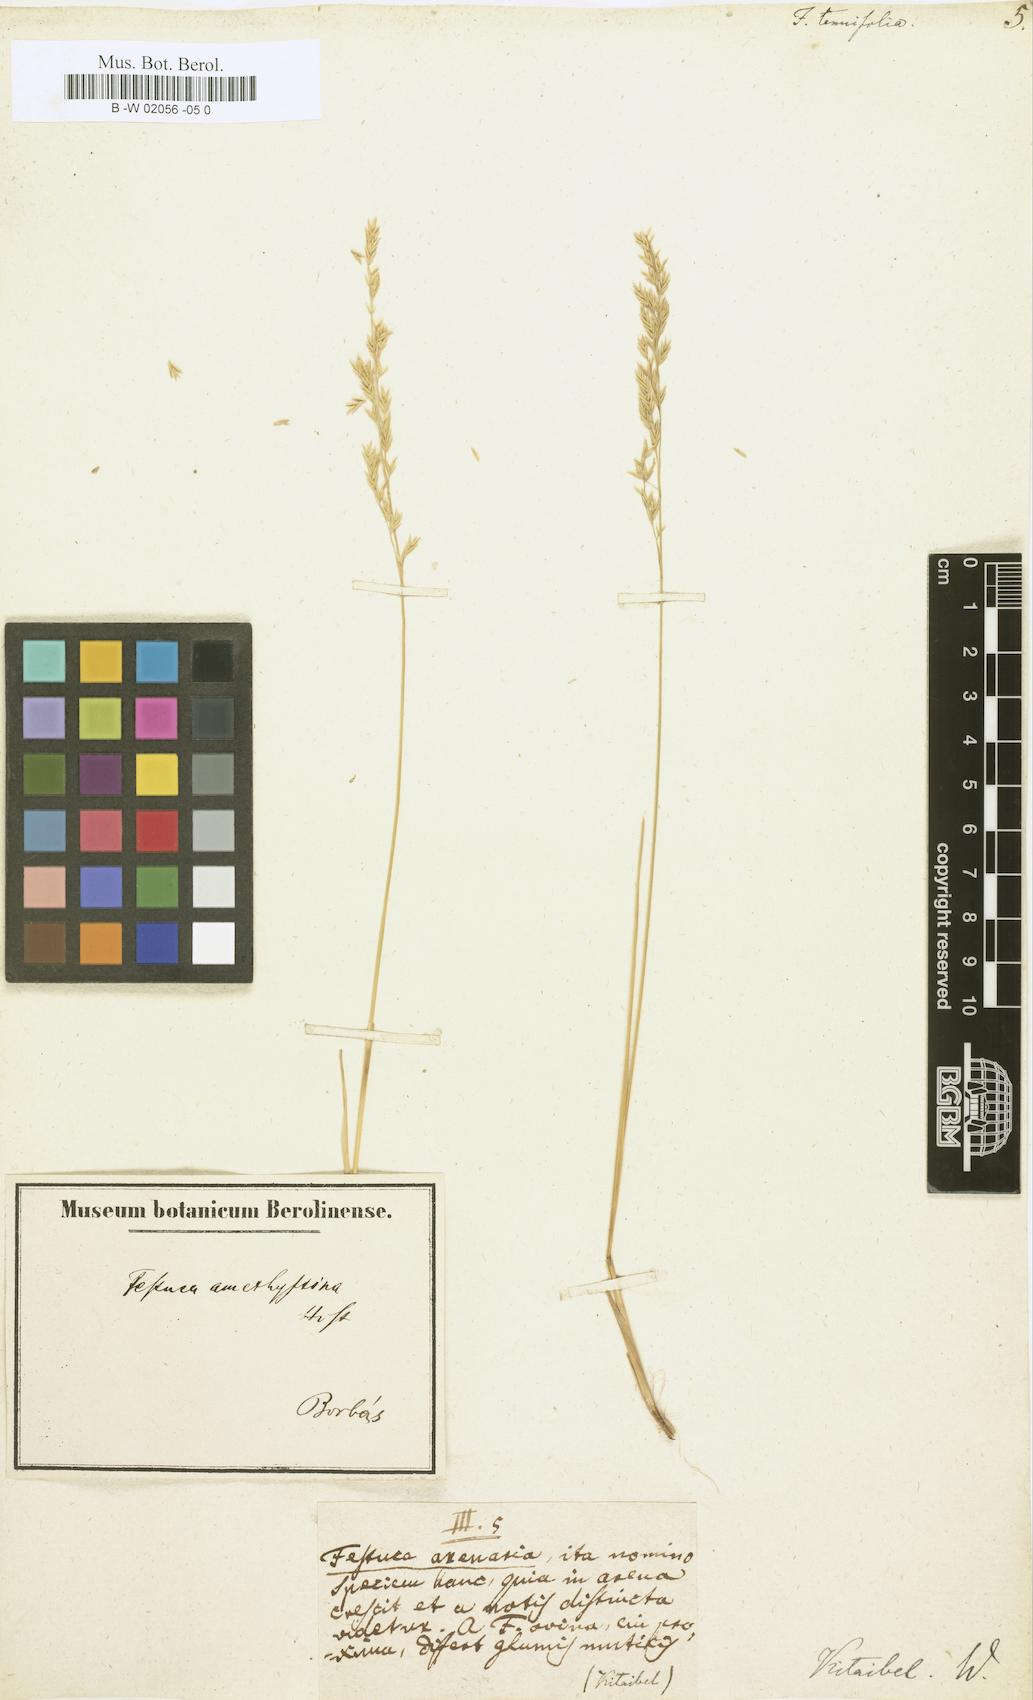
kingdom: Plantae
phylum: Tracheophyta
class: Liliopsida
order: Poales
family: Poaceae
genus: Festuca
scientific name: Festuca
